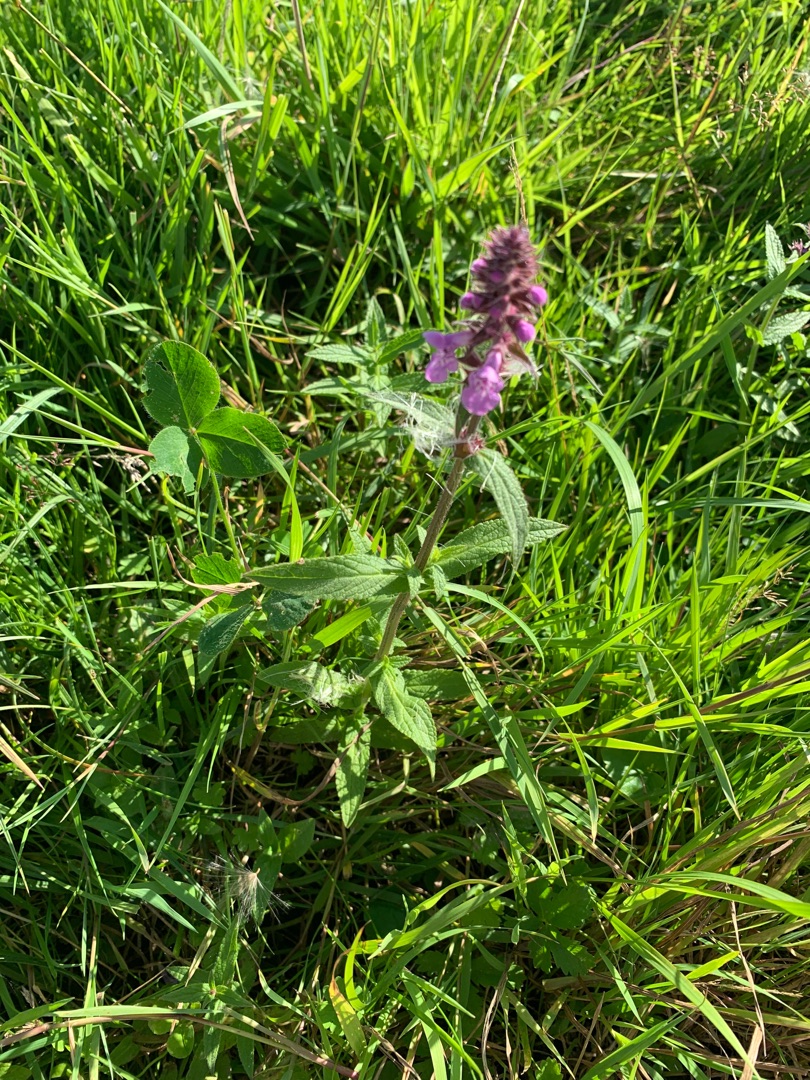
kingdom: Plantae
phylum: Tracheophyta
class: Magnoliopsida
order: Lamiales
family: Lamiaceae
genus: Stachys
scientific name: Stachys palustris
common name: Kær-galtetand
